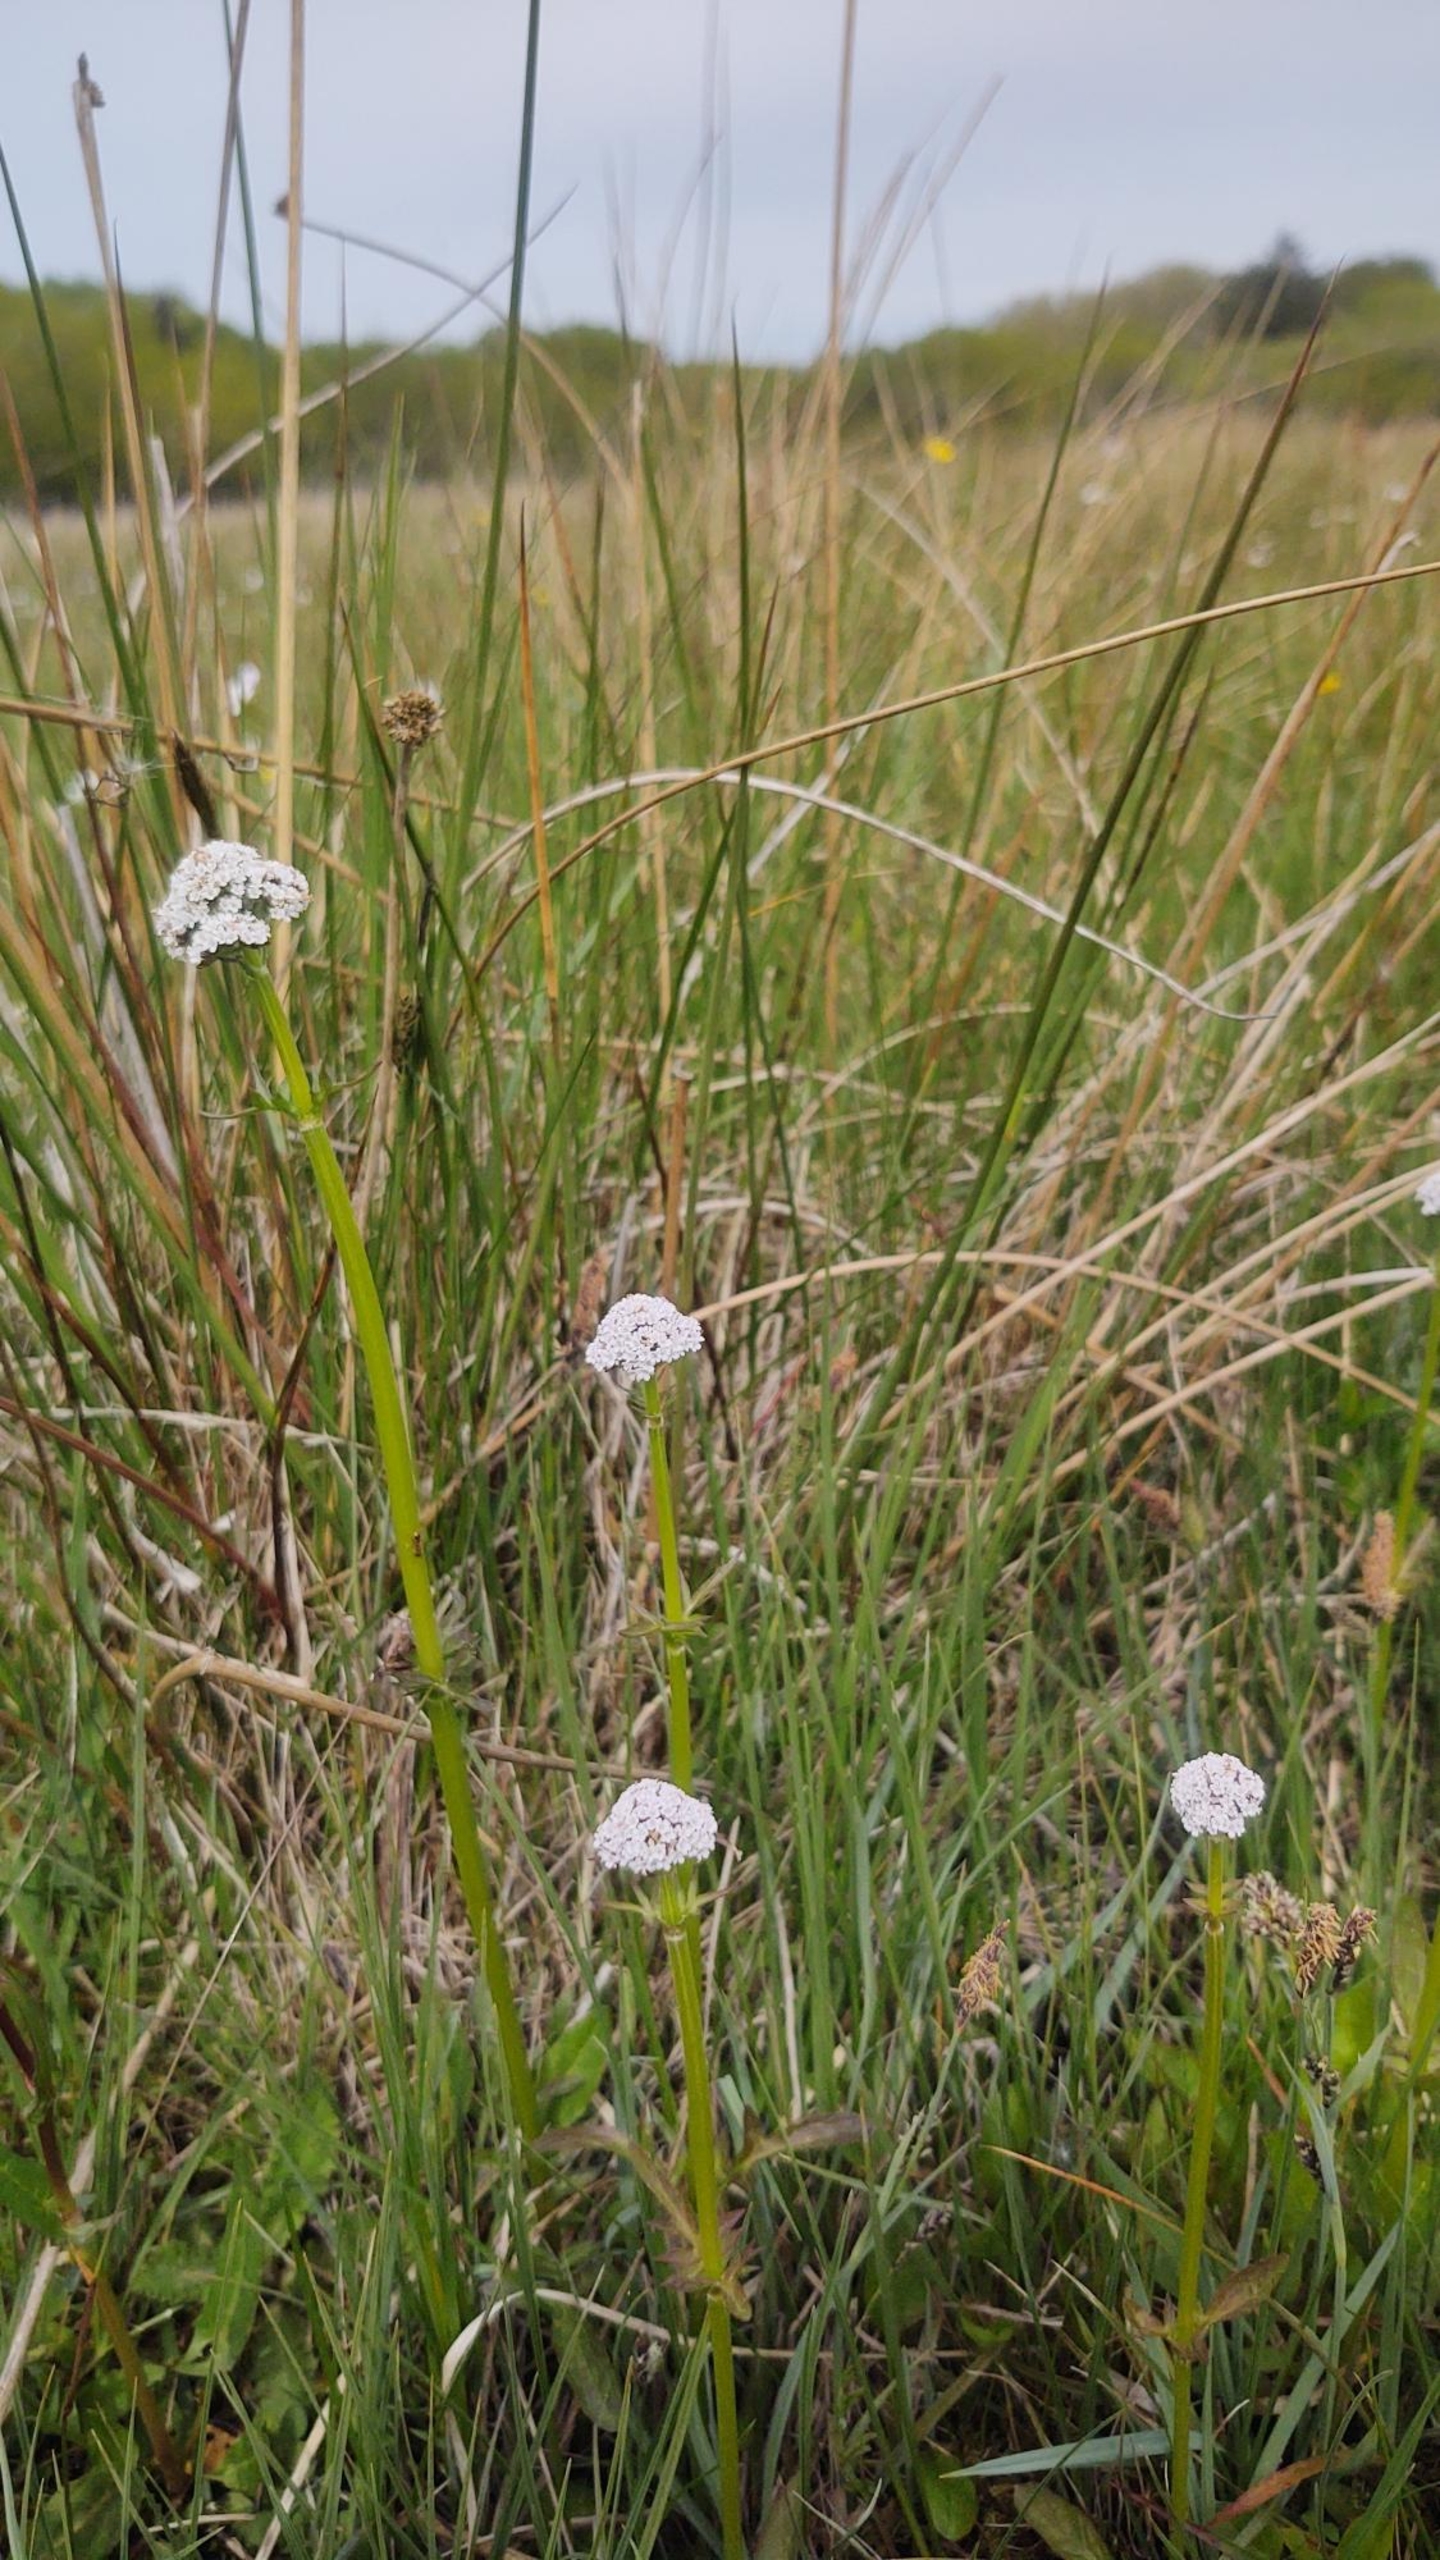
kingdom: Plantae
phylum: Tracheophyta
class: Magnoliopsida
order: Dipsacales
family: Caprifoliaceae
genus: Valeriana
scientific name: Valeriana dioica
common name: Tvebo baldrian
